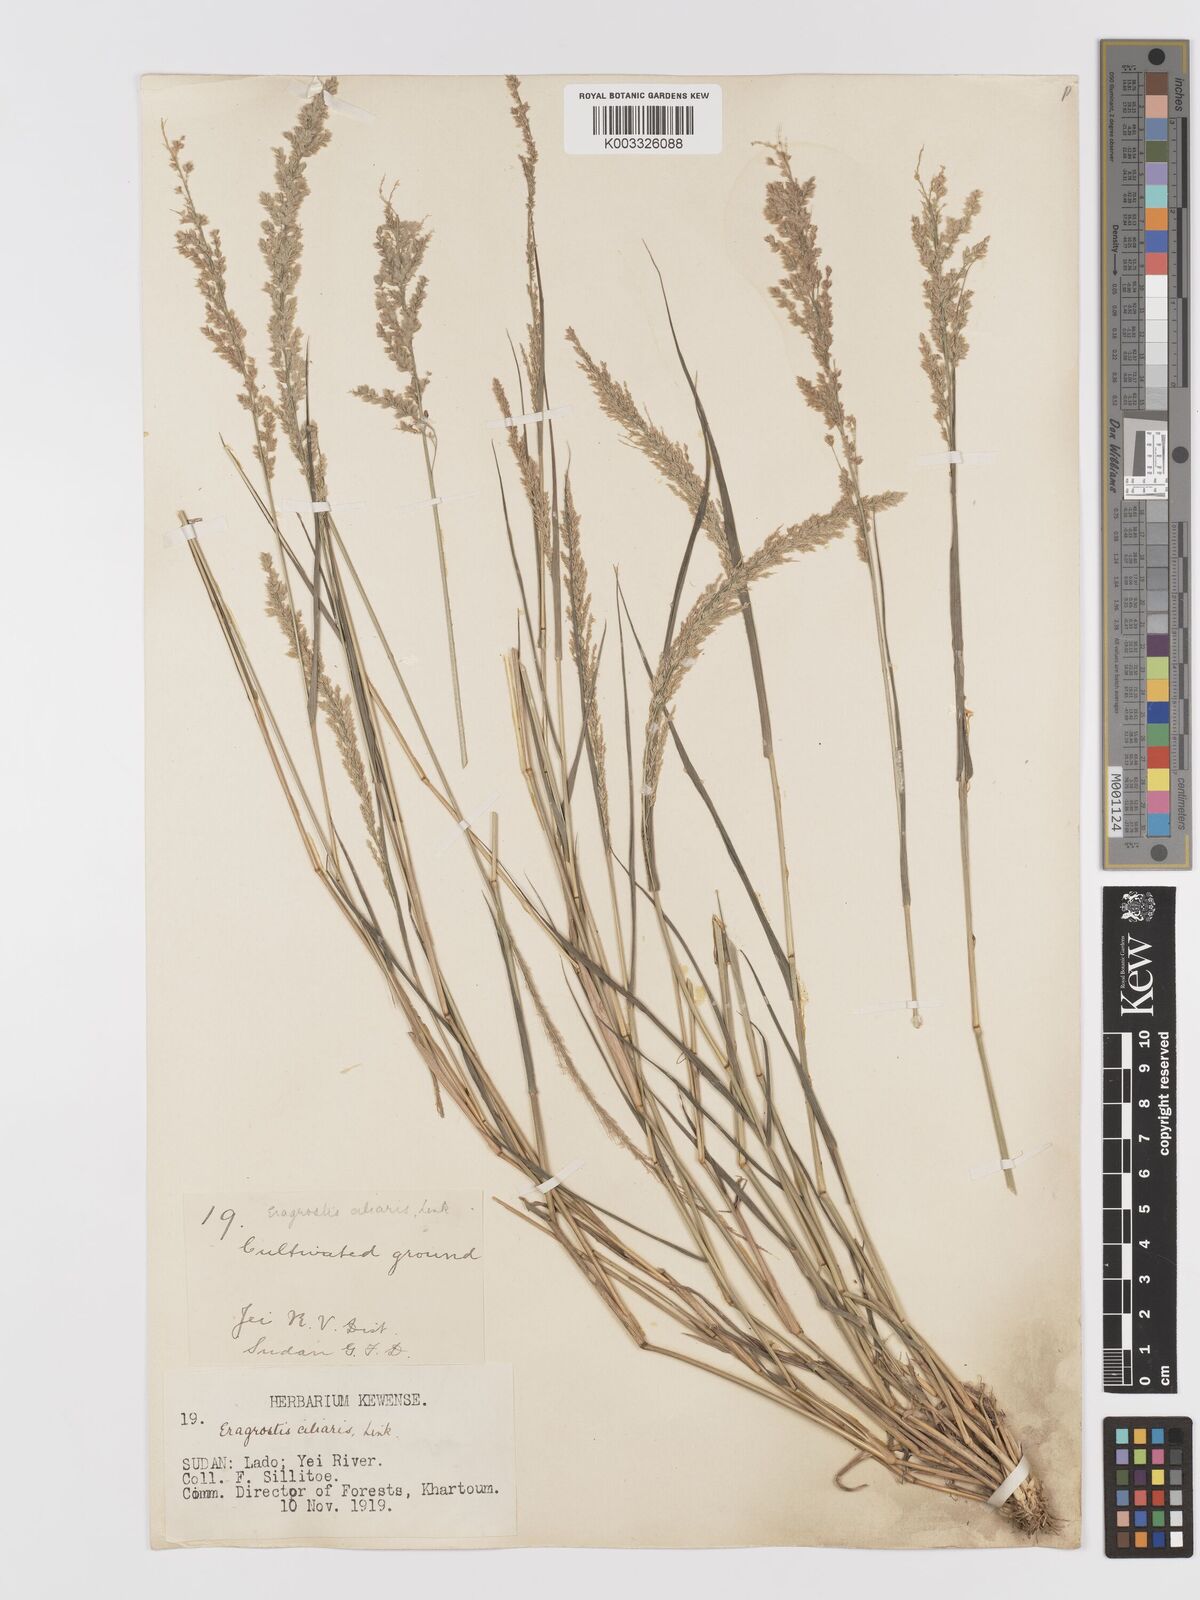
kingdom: Plantae
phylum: Tracheophyta
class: Liliopsida
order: Poales
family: Poaceae
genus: Eragrostis
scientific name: Eragrostis ciliaris
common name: Gophertail lovegrass
